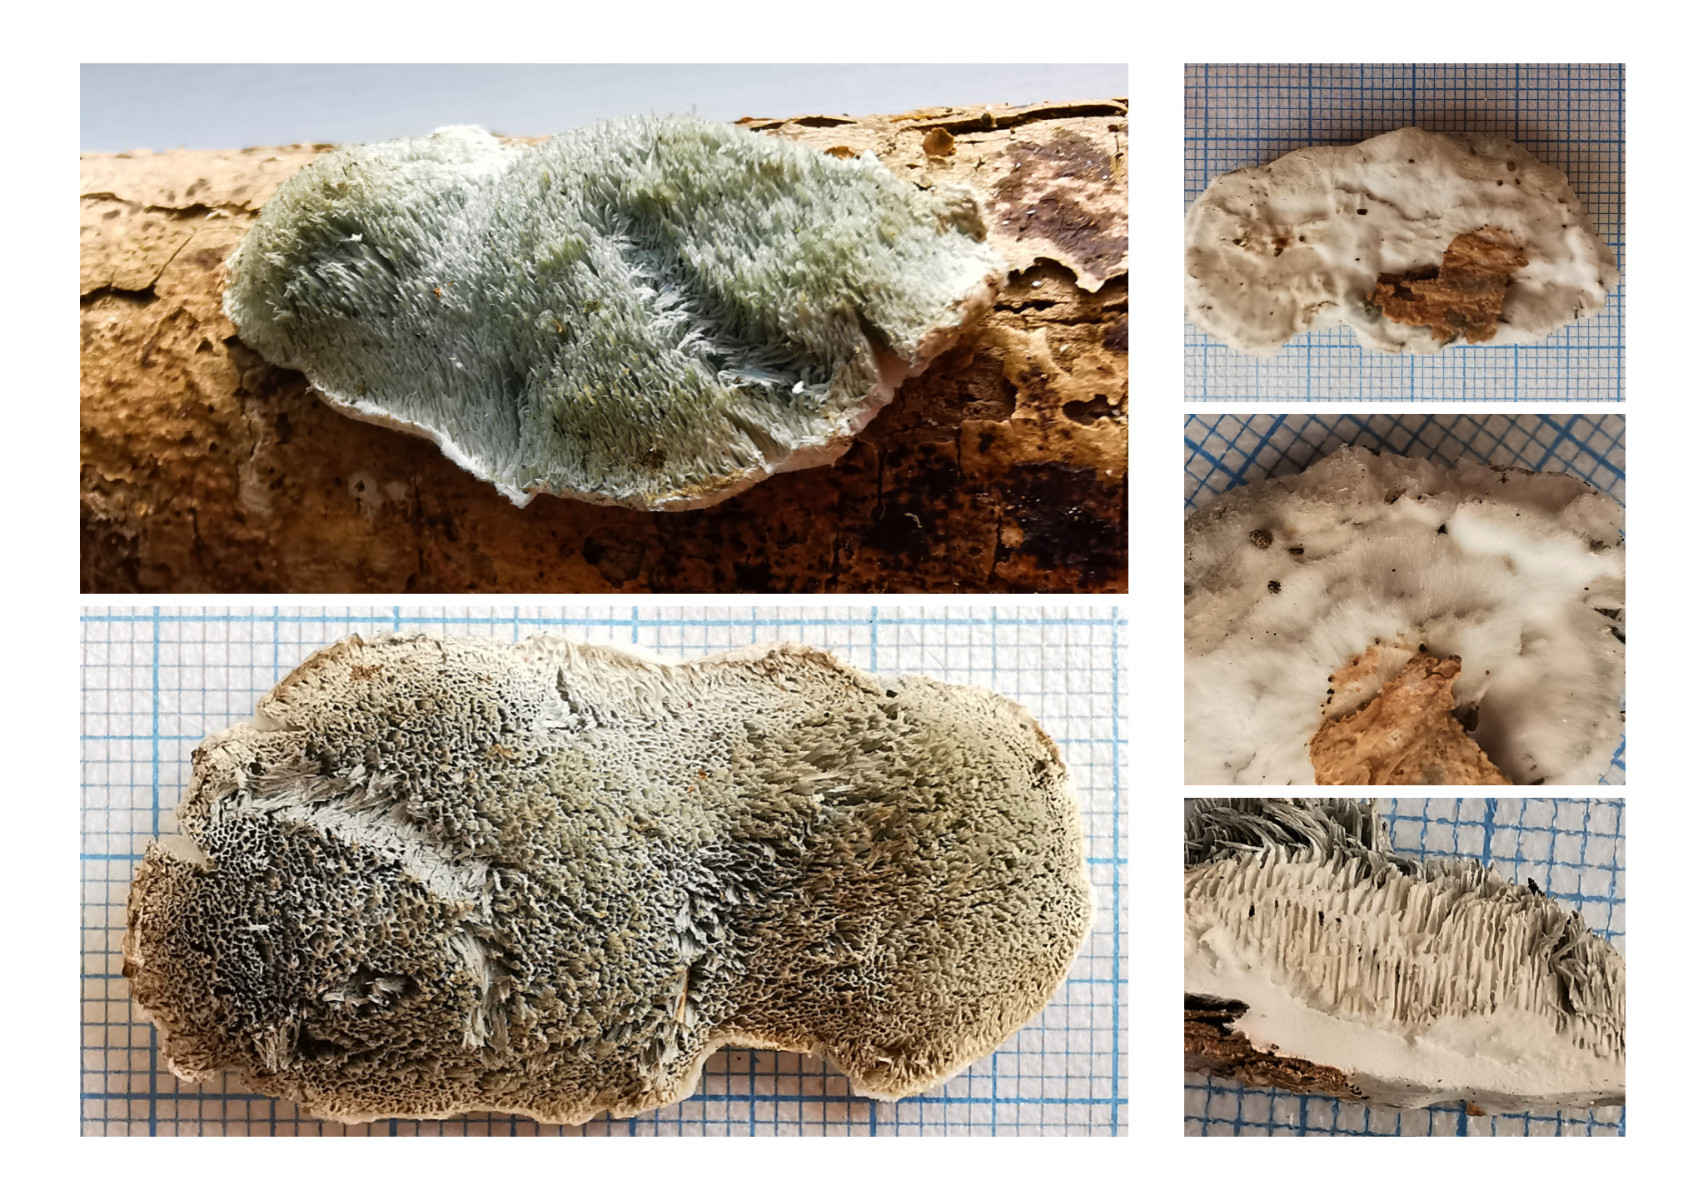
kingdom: Fungi
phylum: Basidiomycota
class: Agaricomycetes
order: Polyporales
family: Polyporaceae
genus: Cyanosporus
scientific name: Cyanosporus alni
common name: blegblå kødporesvamp
